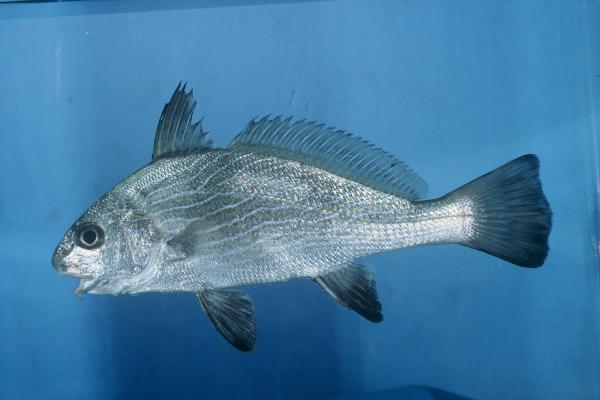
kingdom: Animalia
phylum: Chordata
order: Perciformes
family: Sciaenidae
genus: Umbrina
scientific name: Umbrina ronchus
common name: Slender baardman
